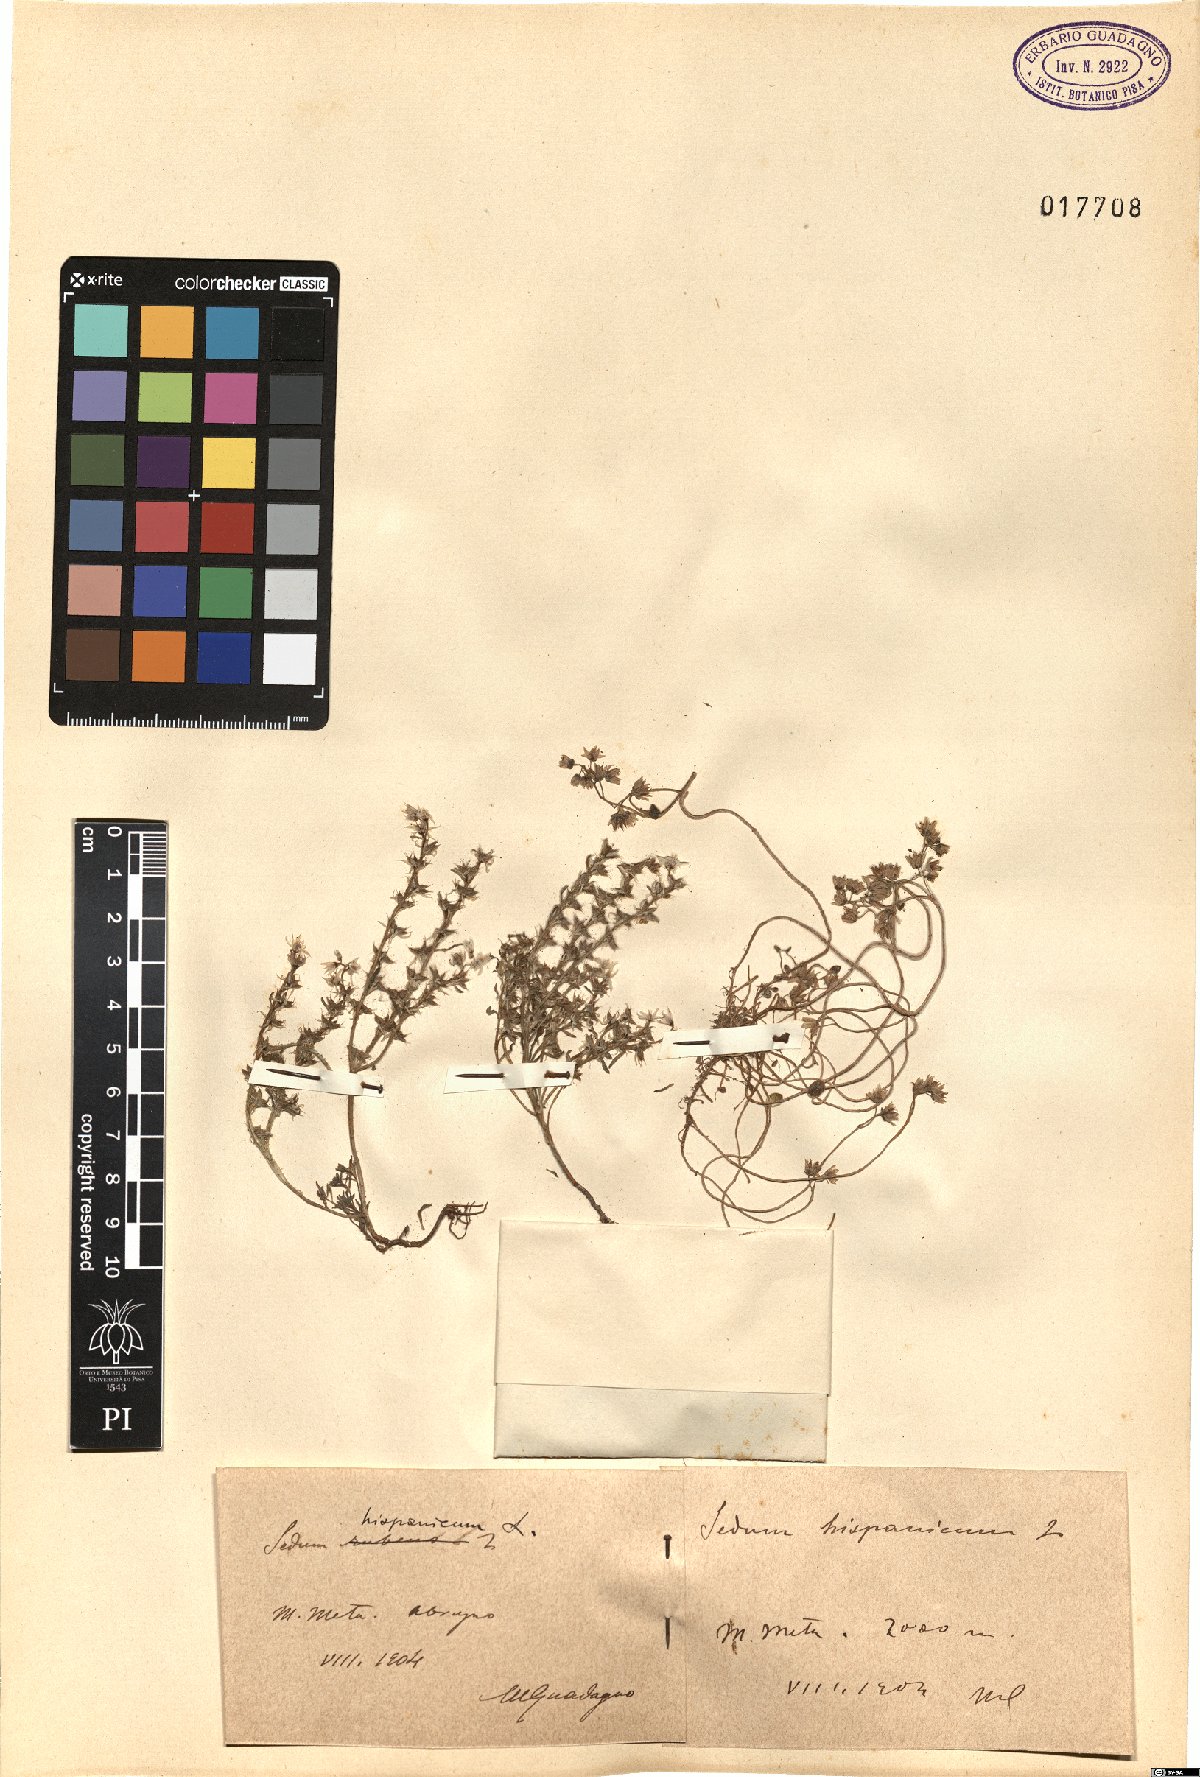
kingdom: Plantae
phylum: Tracheophyta
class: Magnoliopsida
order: Saxifragales
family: Crassulaceae
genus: Sedum
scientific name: Sedum hispanicum
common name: Spanish stonecrop
